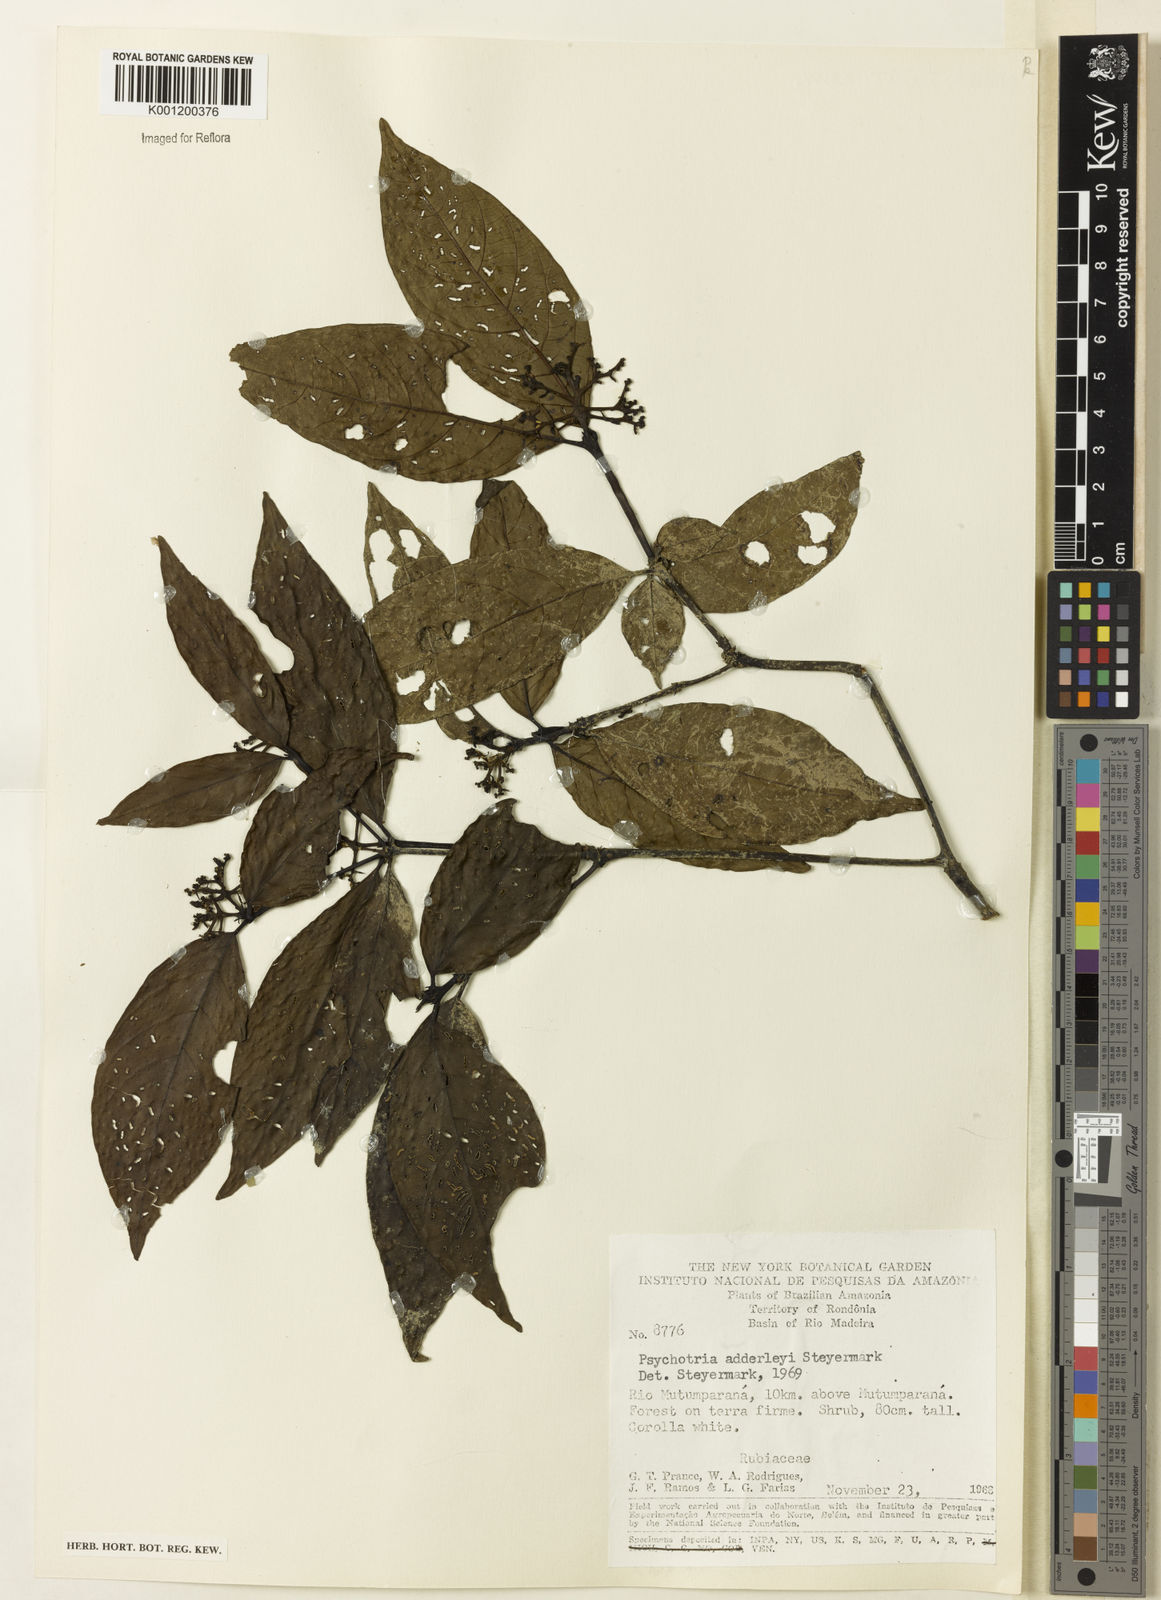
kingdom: Plantae
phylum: Tracheophyta
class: Magnoliopsida
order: Gentianales
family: Rubiaceae
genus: Palicourea
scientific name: Palicourea adderleyi
